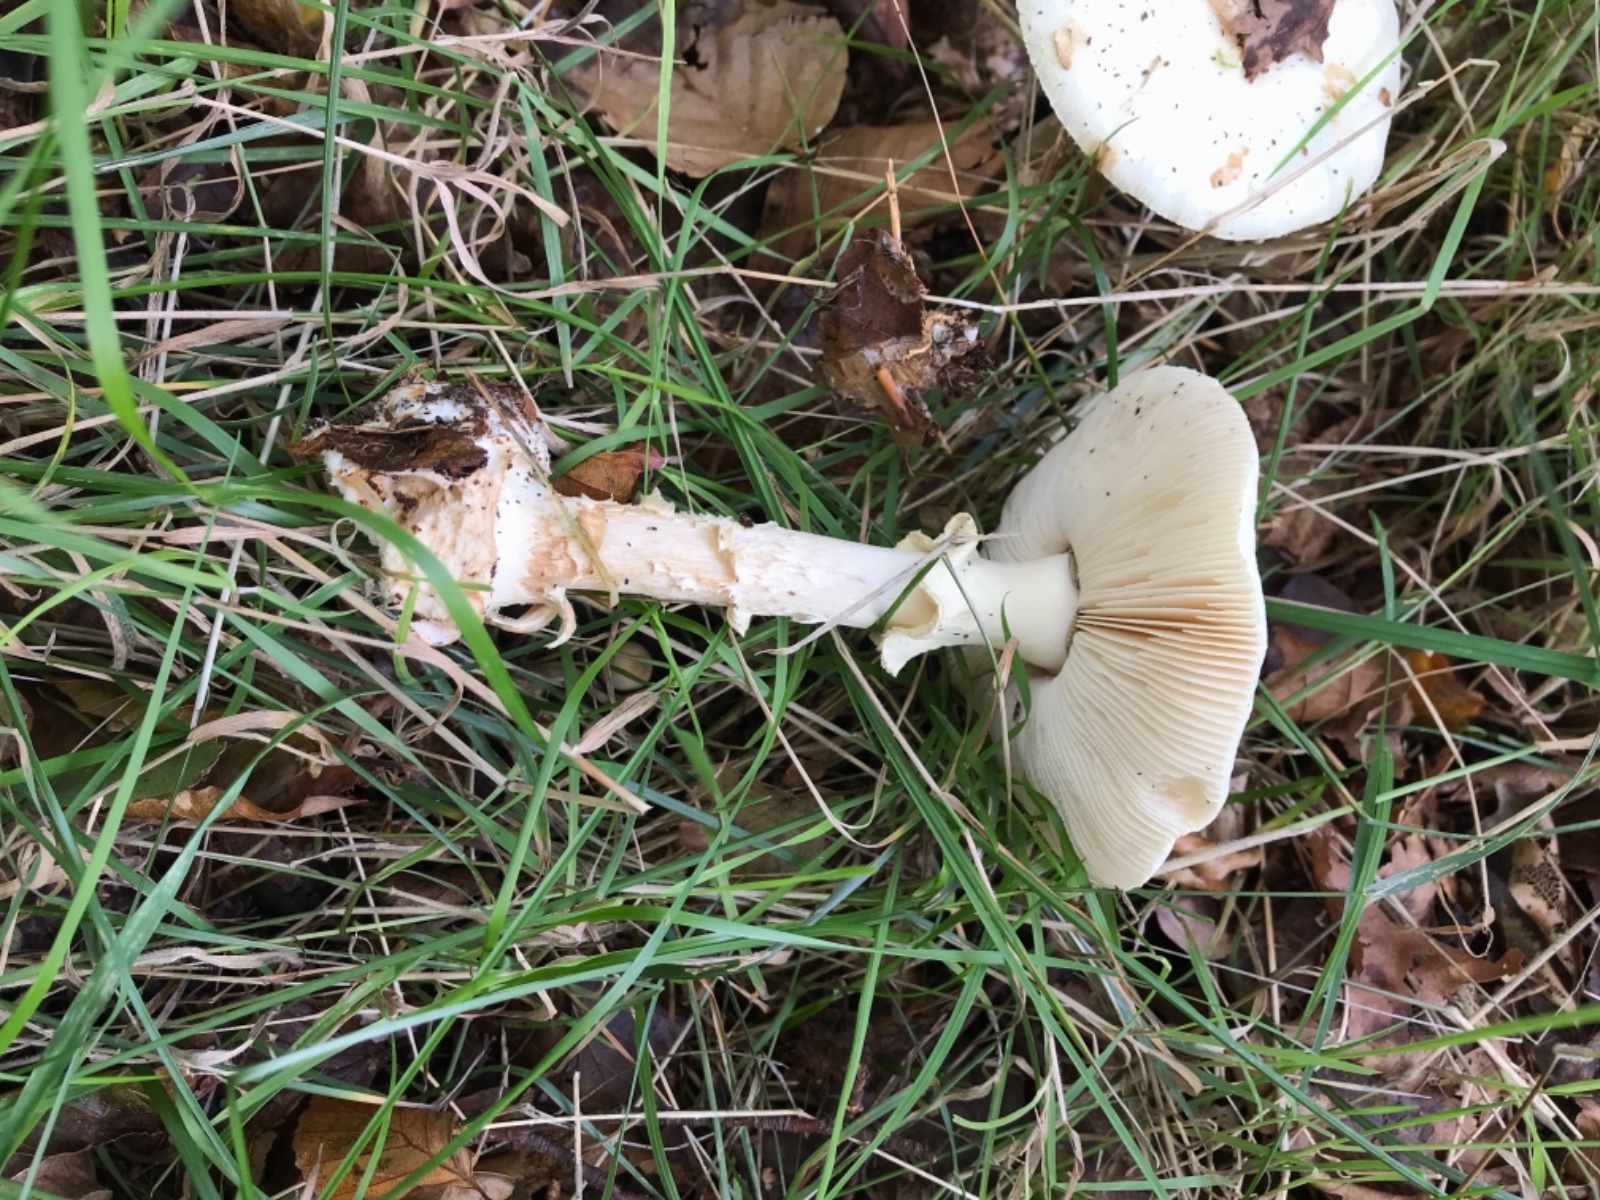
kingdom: Fungi
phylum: Basidiomycota
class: Agaricomycetes
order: Agaricales
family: Amanitaceae
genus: Amanita
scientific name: Amanita citrina
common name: kugleknoldet fluesvamp
